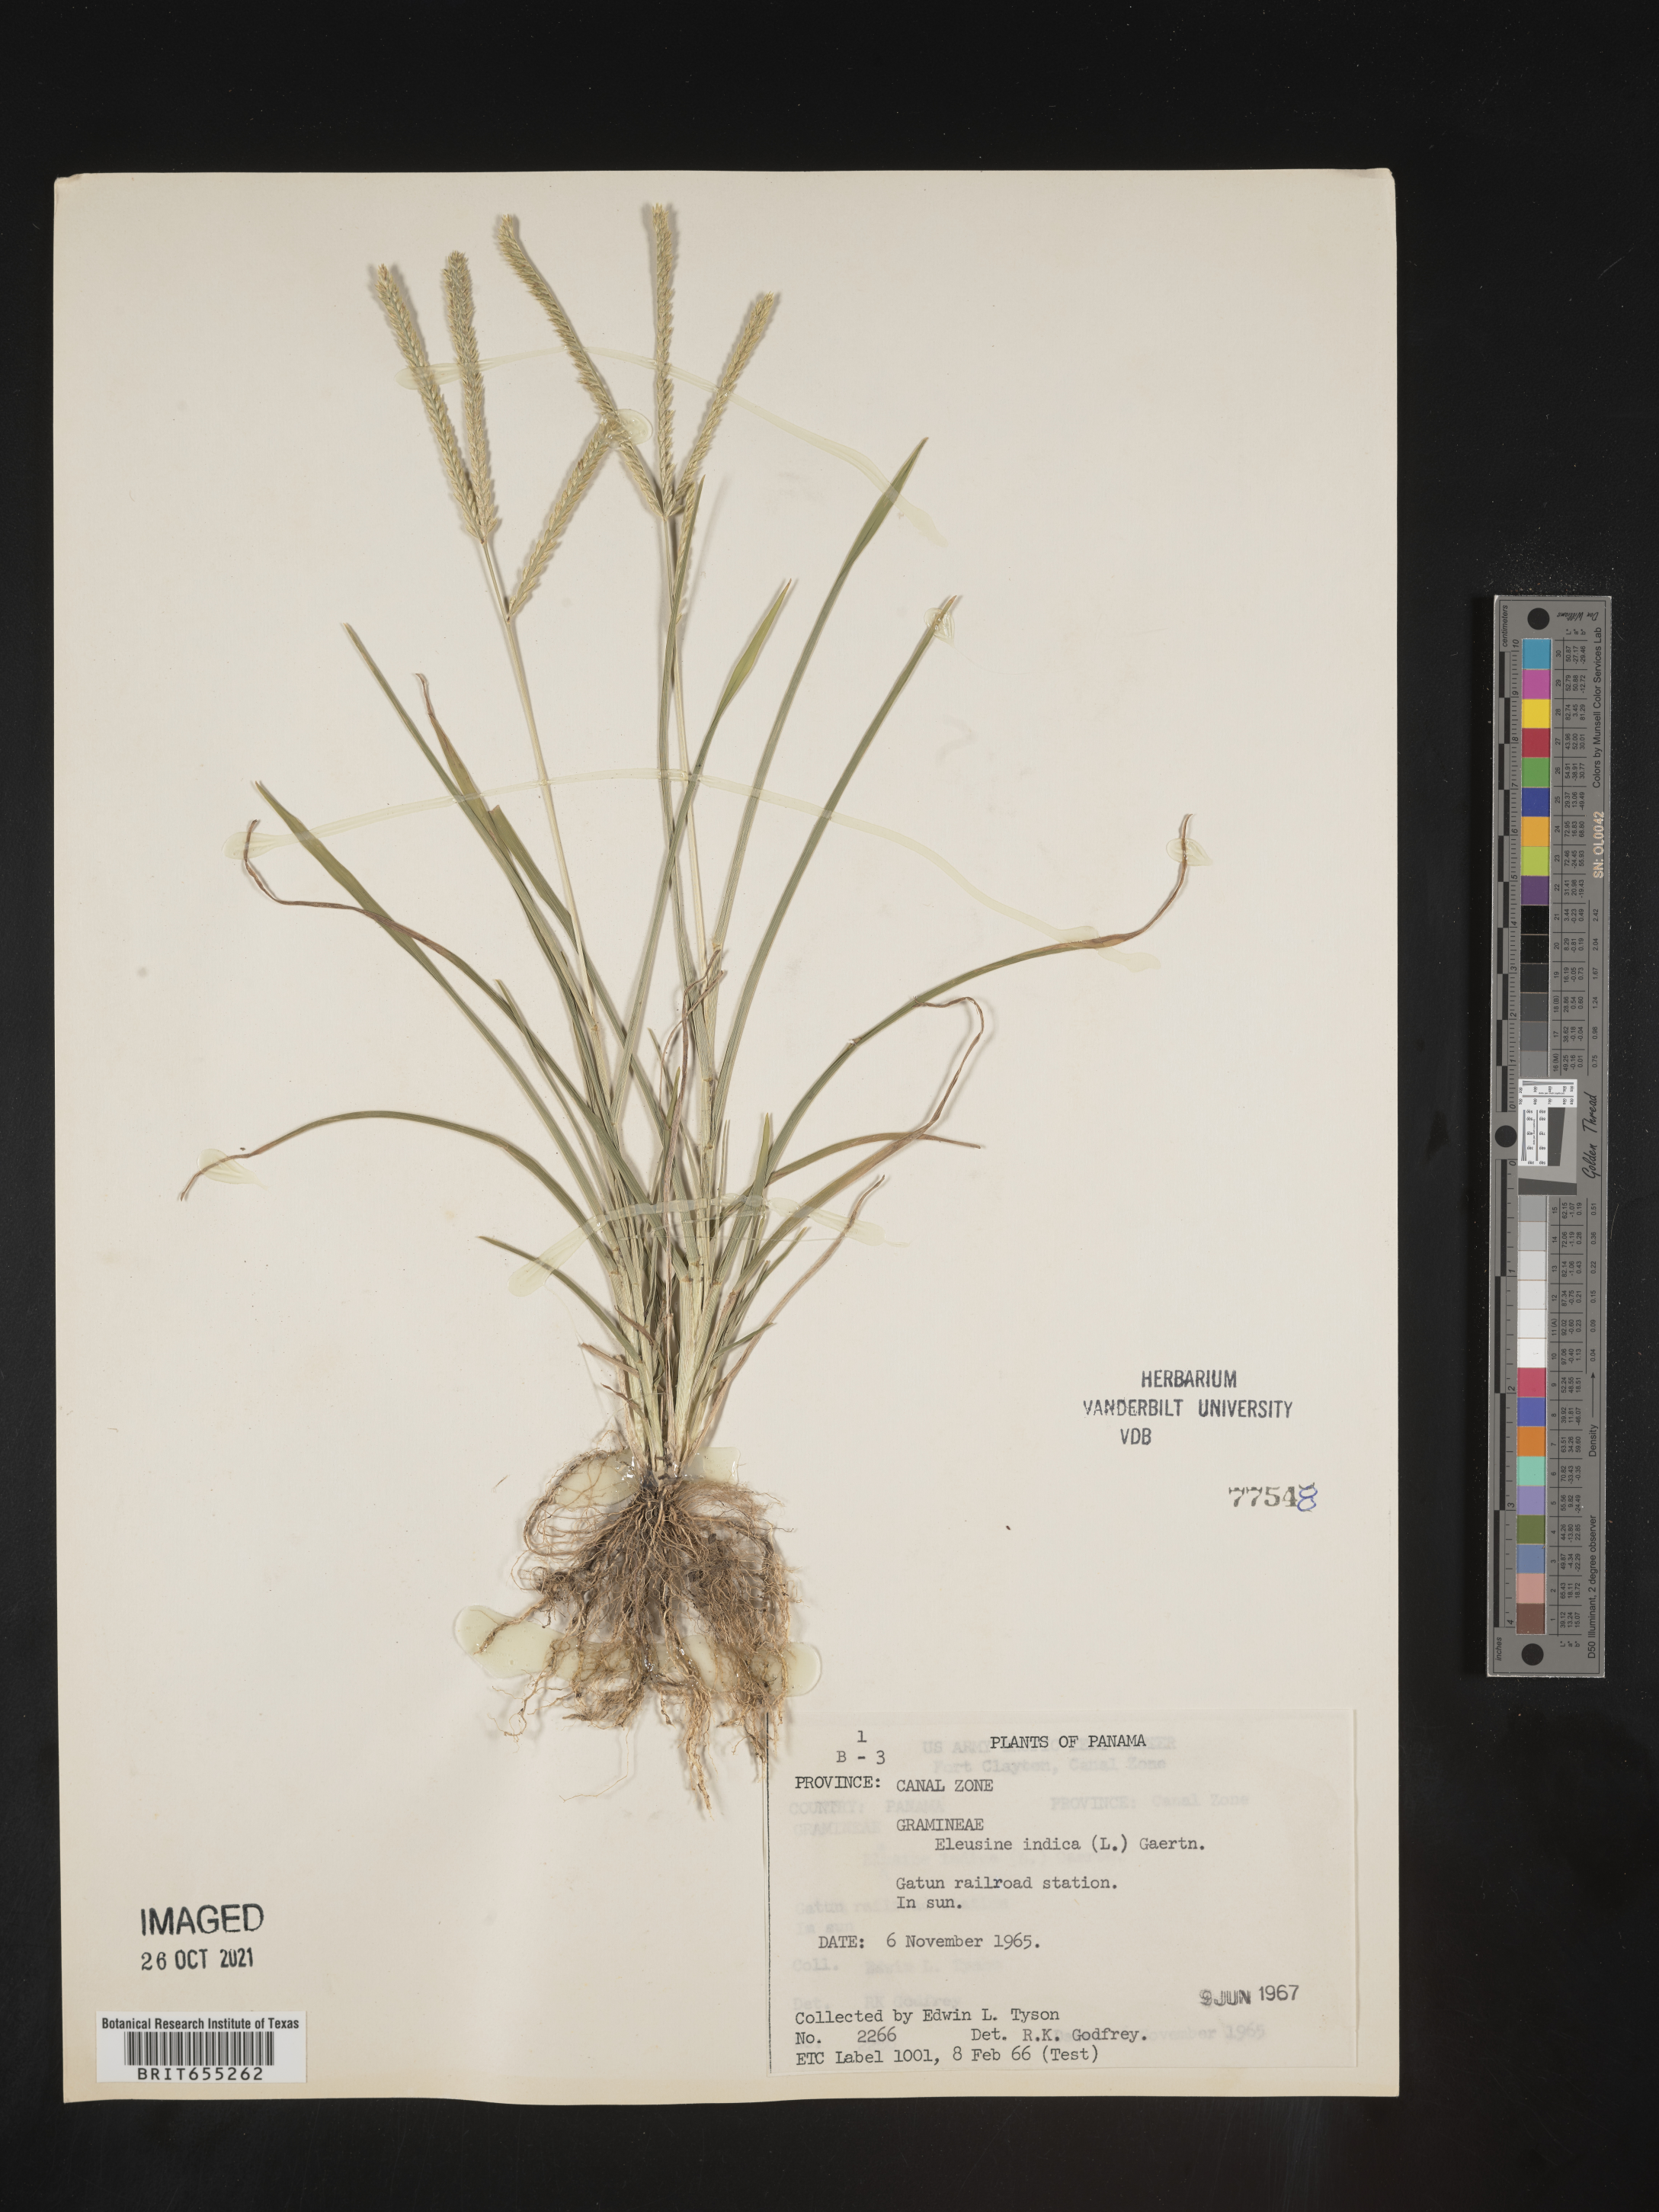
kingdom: Plantae
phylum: Tracheophyta
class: Liliopsida
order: Poales
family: Poaceae
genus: Eleusine
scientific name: Eleusine
